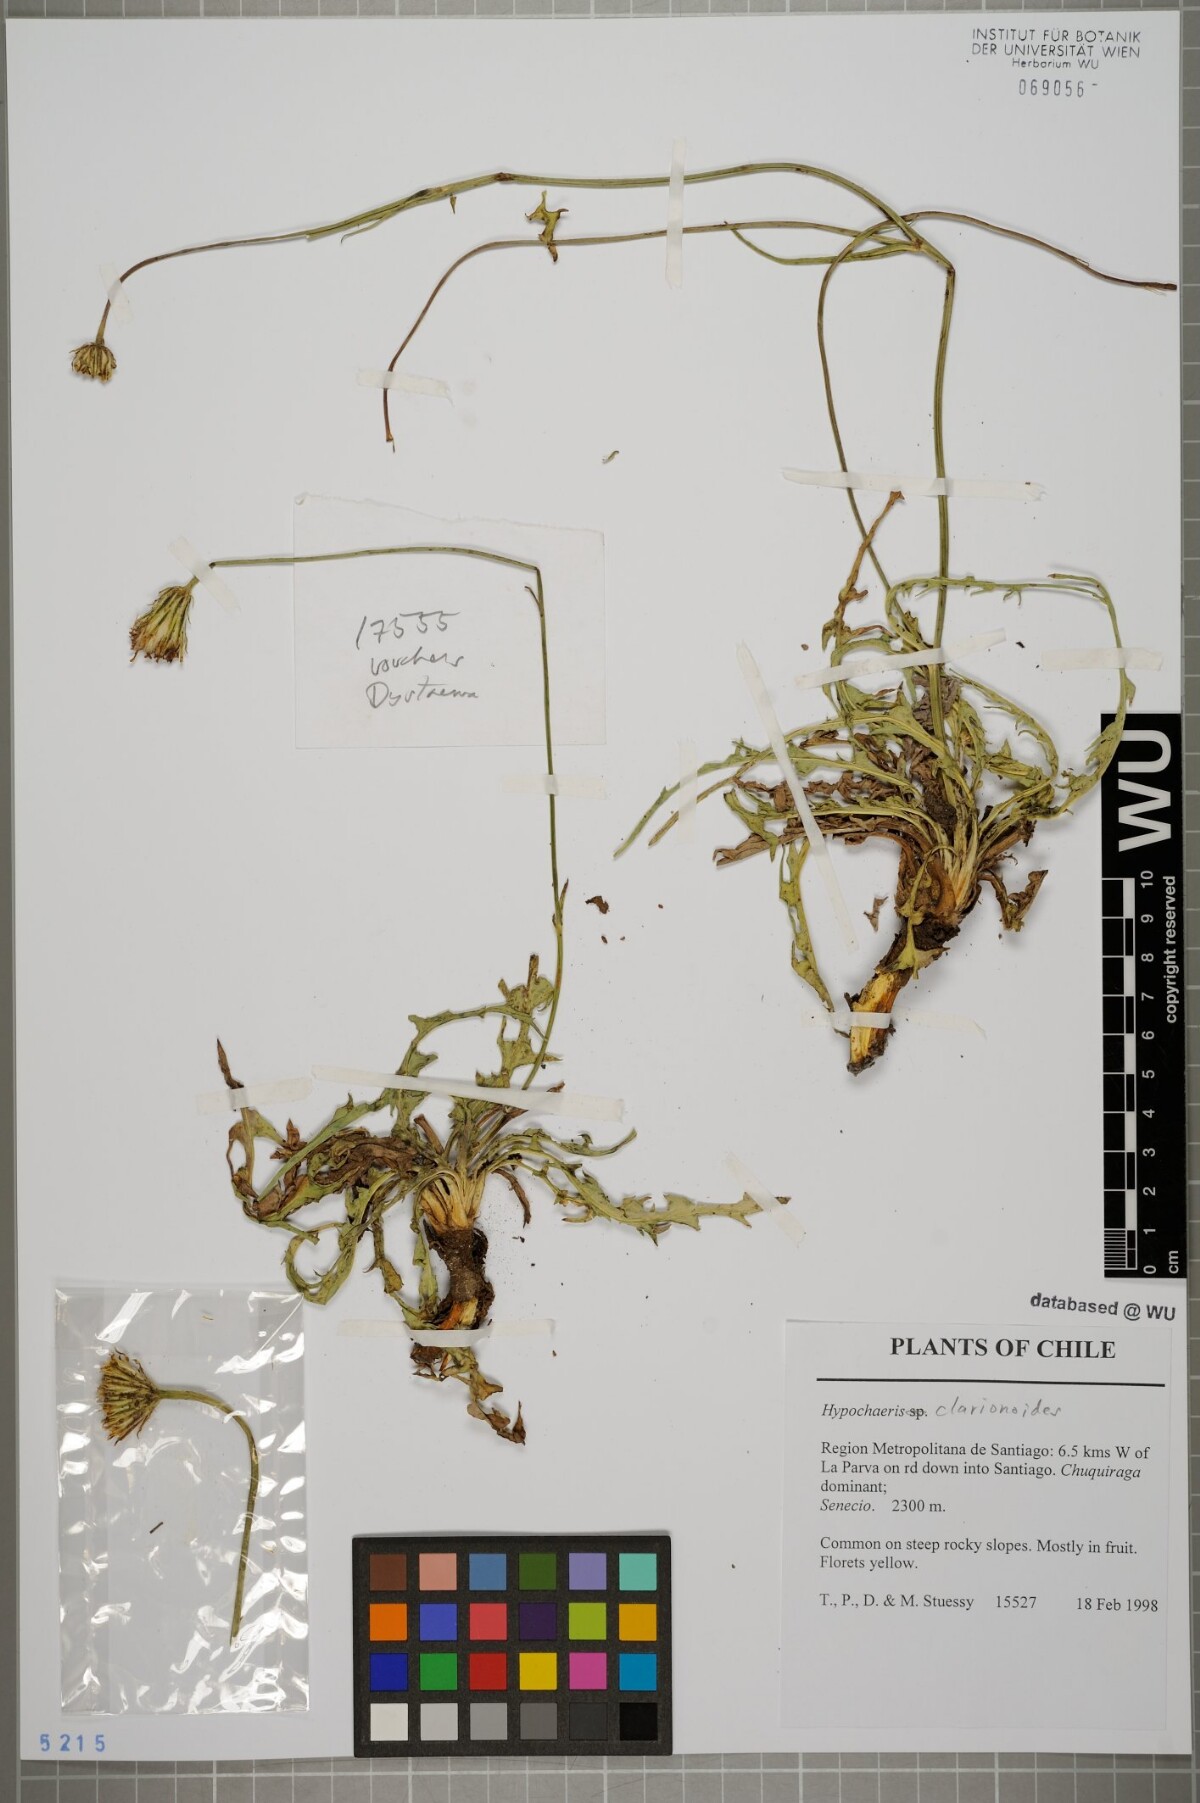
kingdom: Plantae
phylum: Tracheophyta
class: Magnoliopsida
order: Asterales
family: Asteraceae
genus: Hypochaeris
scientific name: Hypochaeris clarionoides
